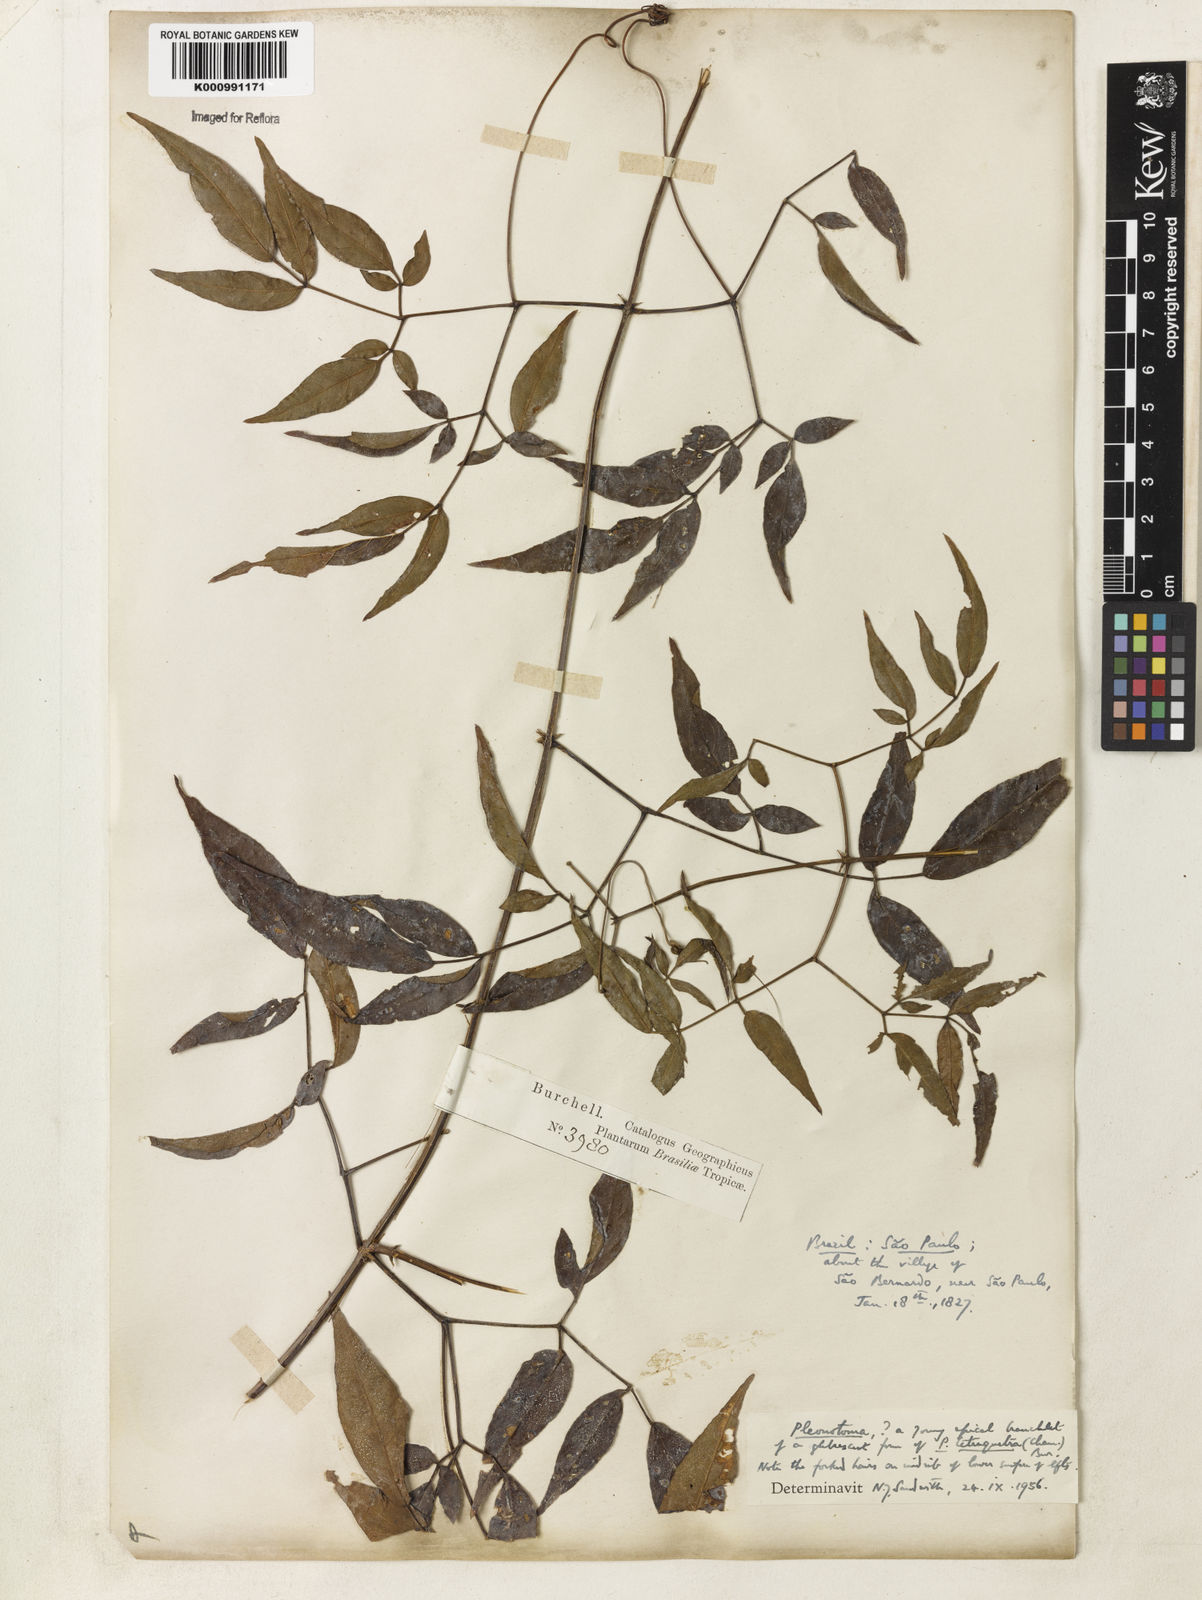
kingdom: Plantae
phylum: Tracheophyta
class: Magnoliopsida
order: Lamiales
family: Bignoniaceae
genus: Pleonotoma
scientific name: Pleonotoma tetraquetra
